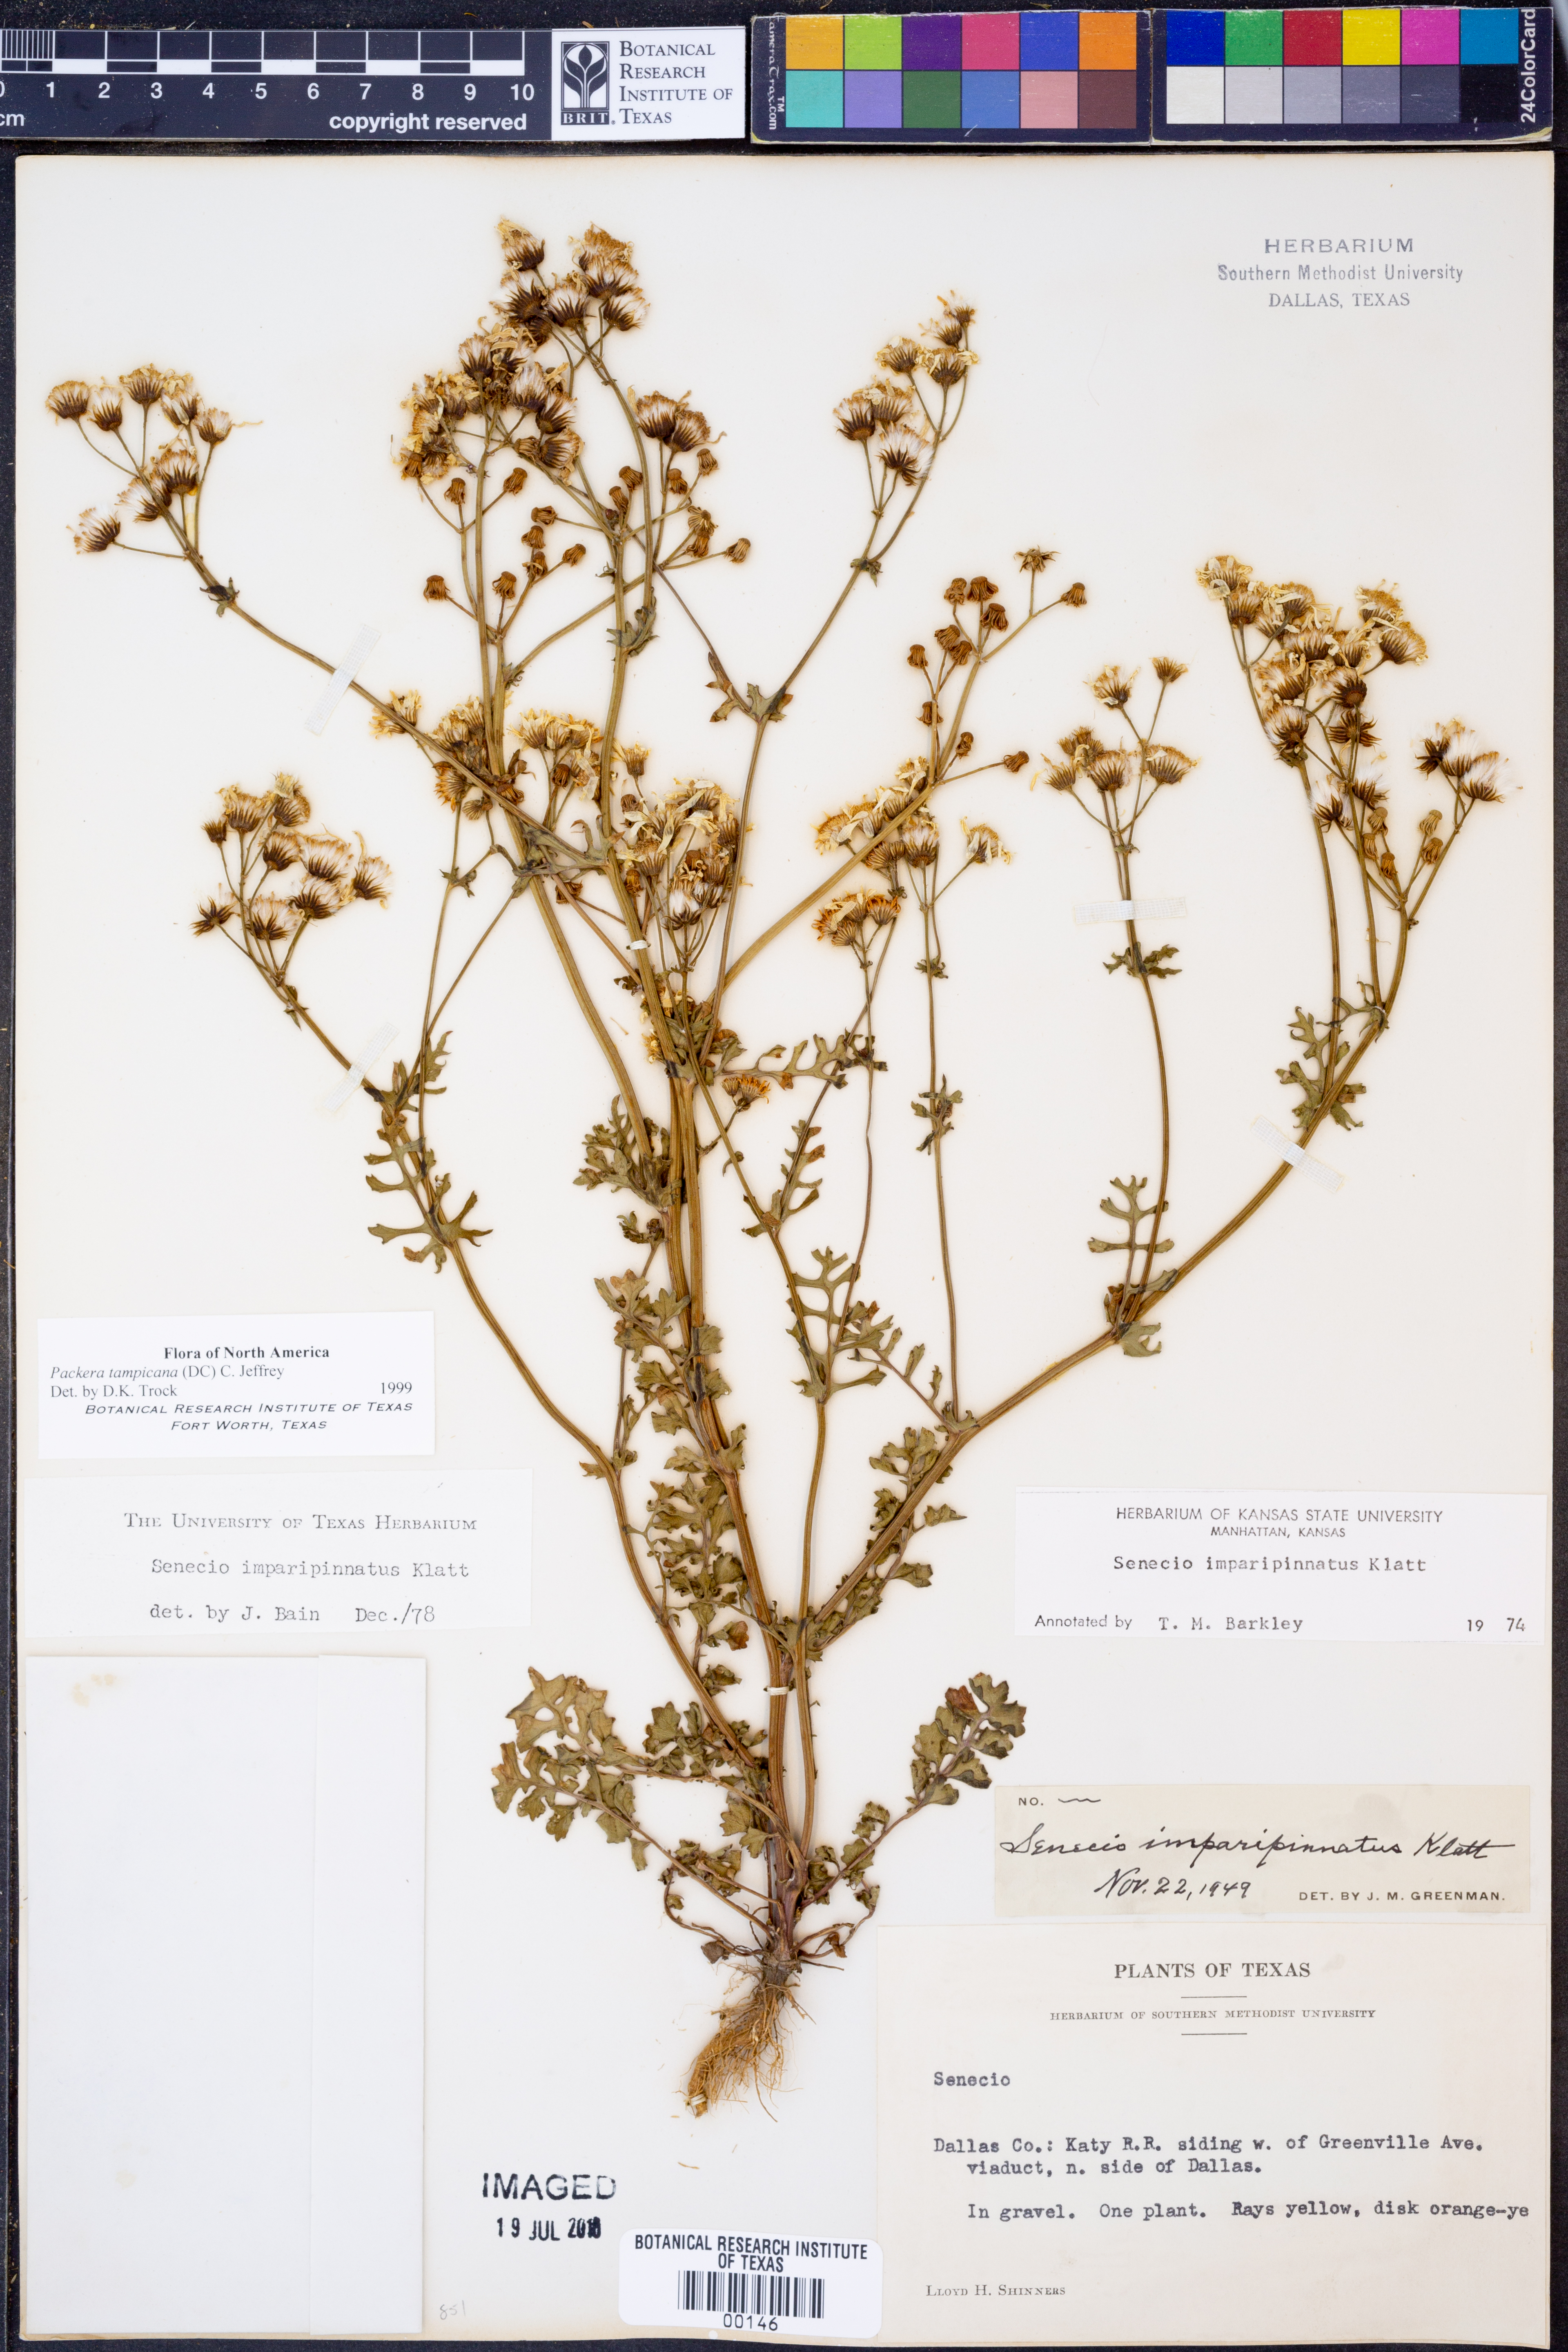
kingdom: Plantae
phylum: Tracheophyta
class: Magnoliopsida
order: Asterales
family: Asteraceae
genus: Packera
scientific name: Packera tampicana
